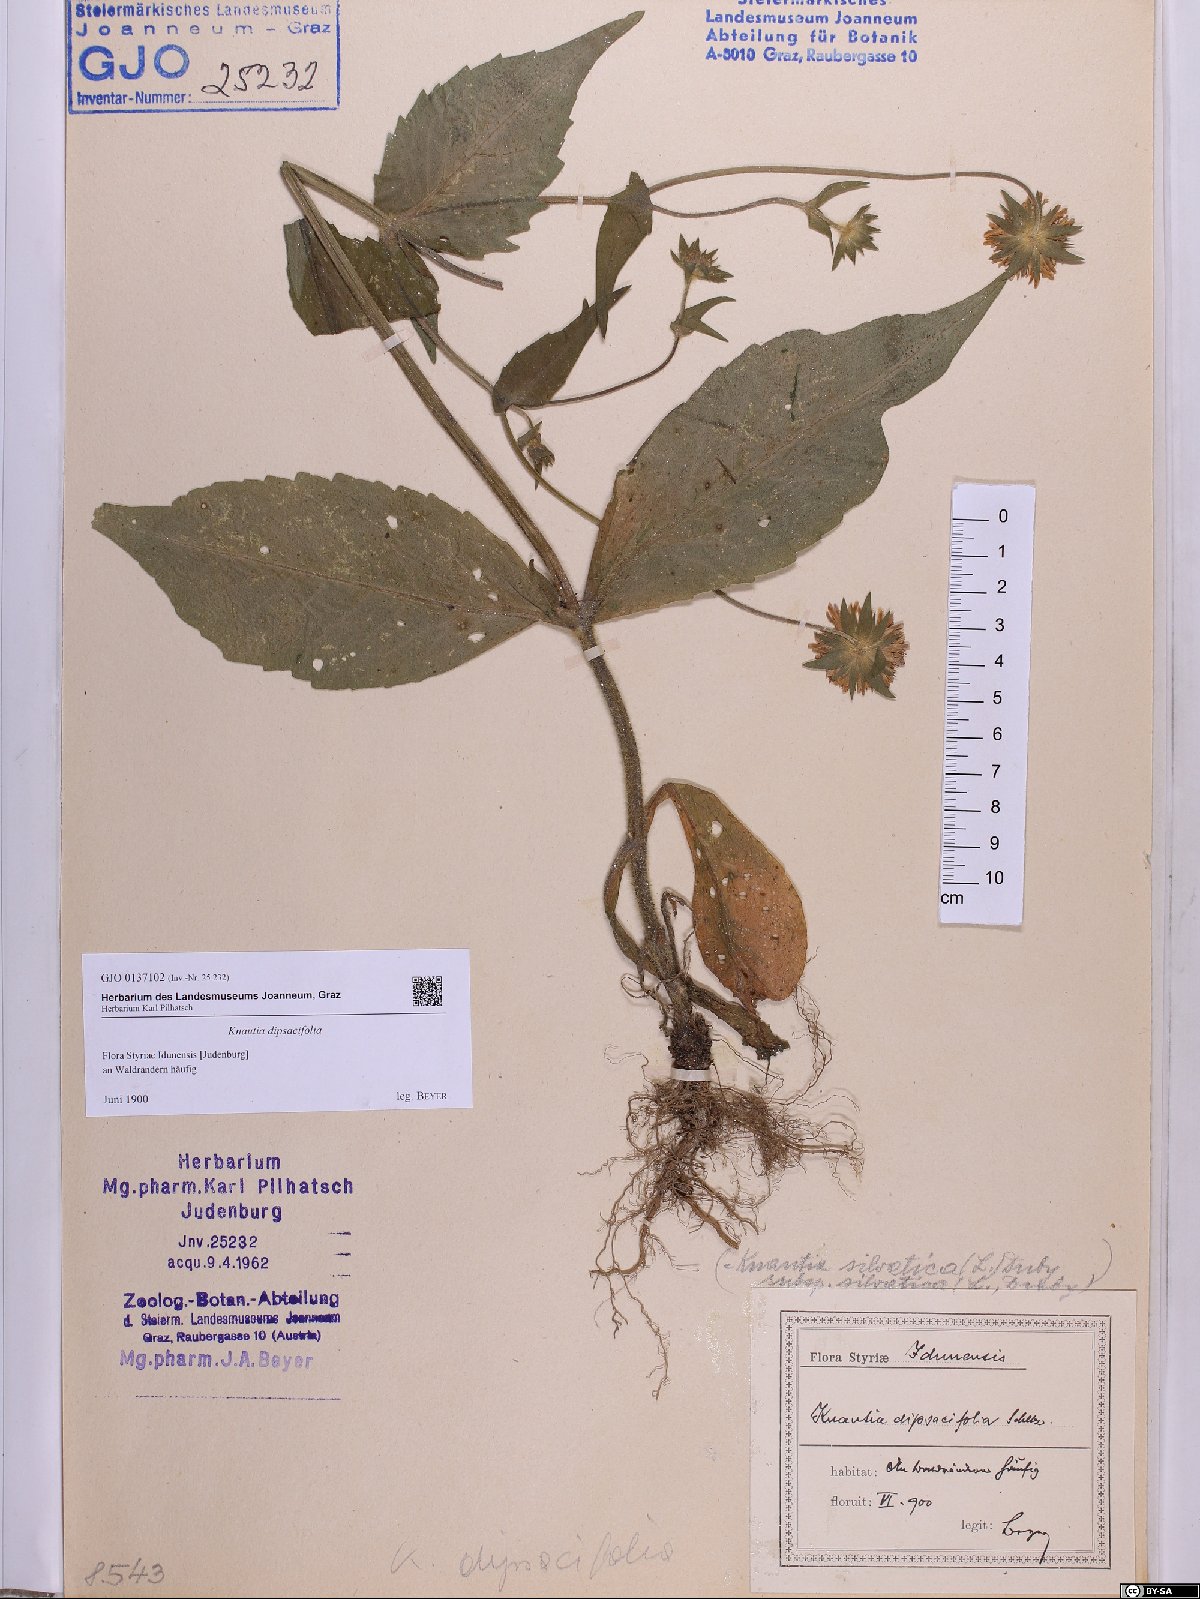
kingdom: Plantae
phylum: Tracheophyta
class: Magnoliopsida
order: Dipsacales
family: Caprifoliaceae
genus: Knautia
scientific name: Knautia dipsacifolia
